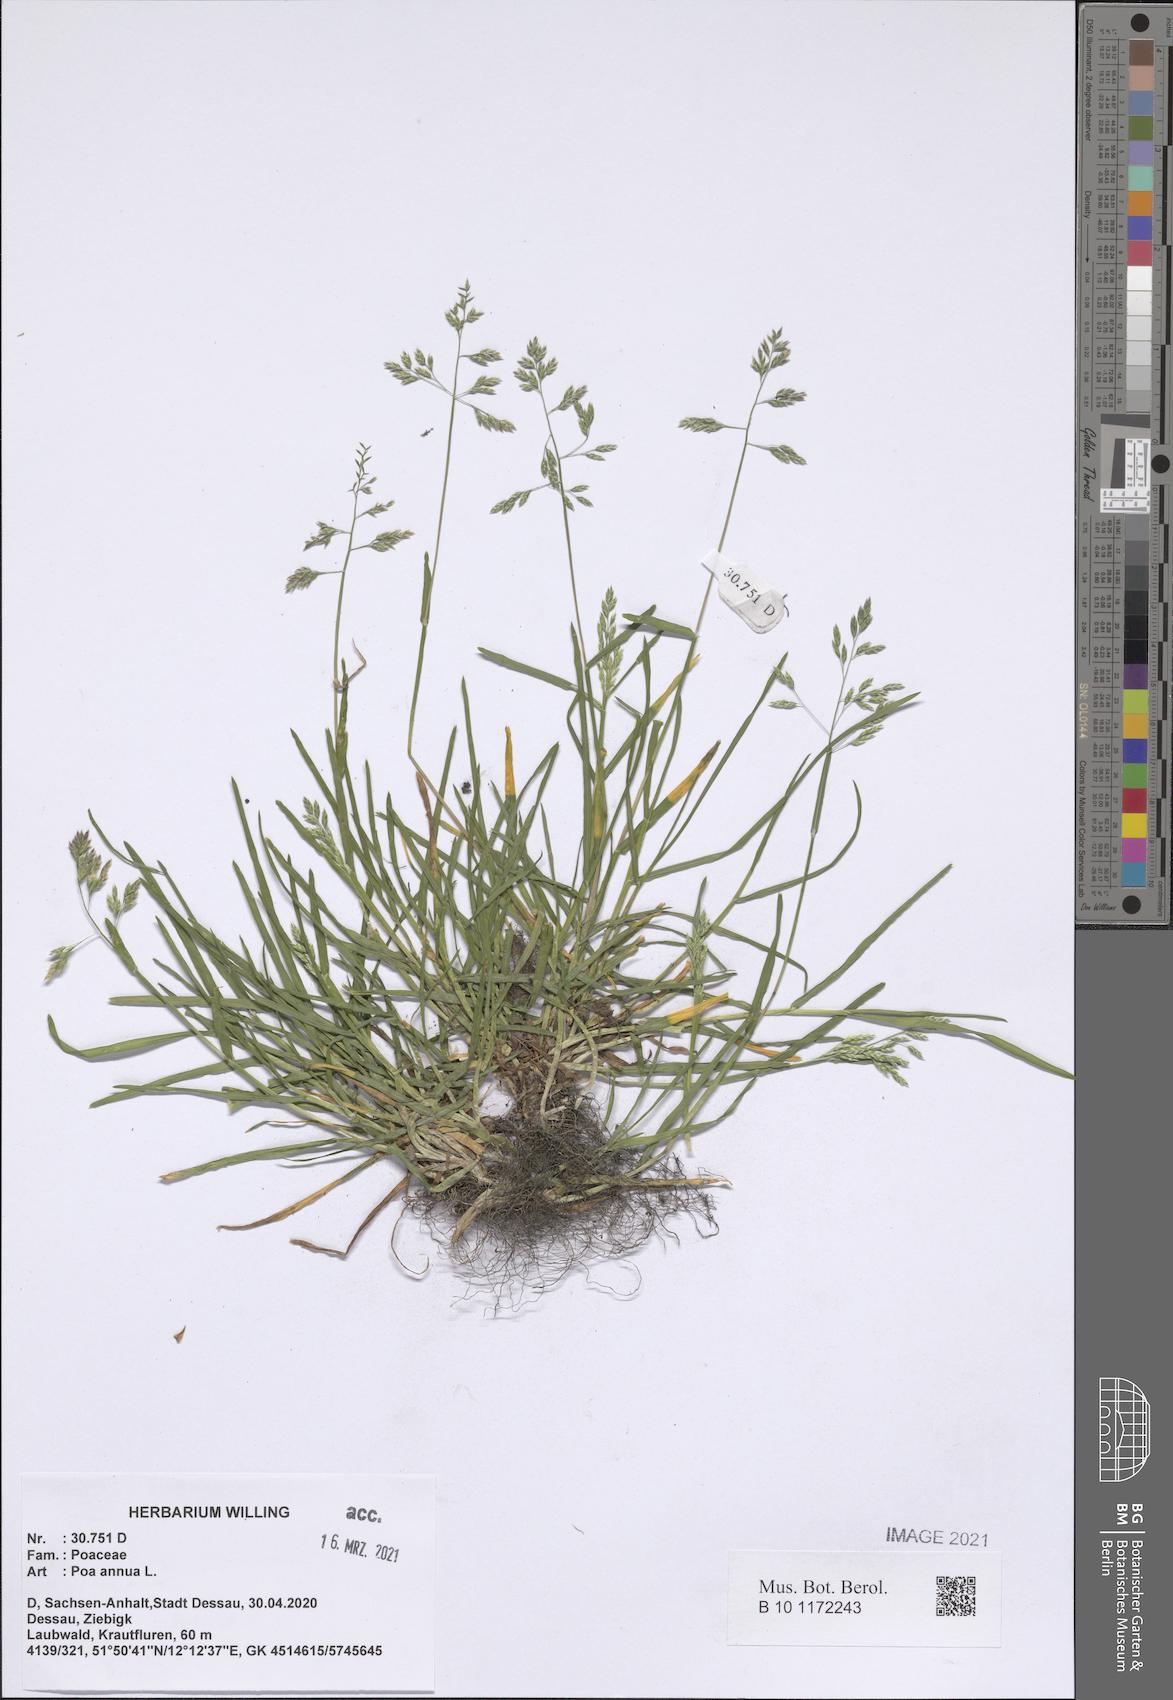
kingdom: Plantae
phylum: Tracheophyta
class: Liliopsida
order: Poales
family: Poaceae
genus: Poa
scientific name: Poa annua
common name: Annual bluegrass
